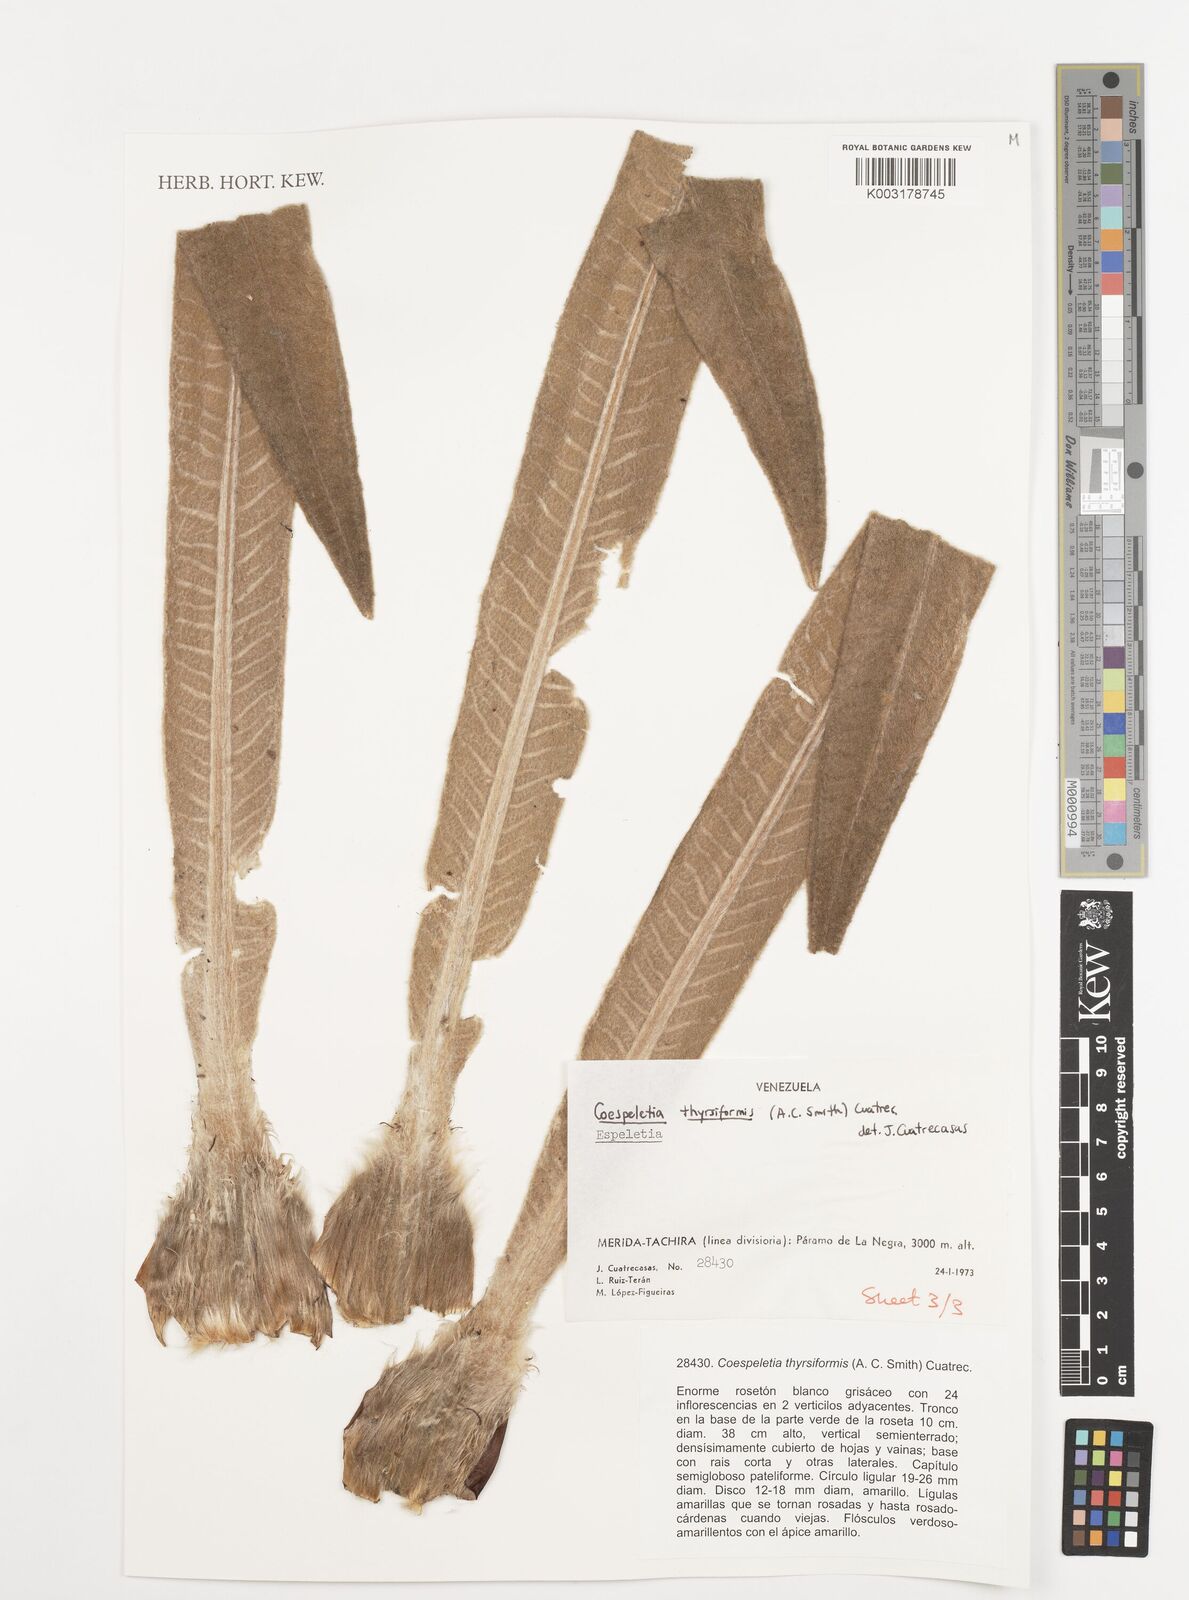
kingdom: Plantae
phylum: Tracheophyta
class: Magnoliopsida
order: Asterales
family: Asteraceae
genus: Espeletia
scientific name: Espeletia thyrsiformis
